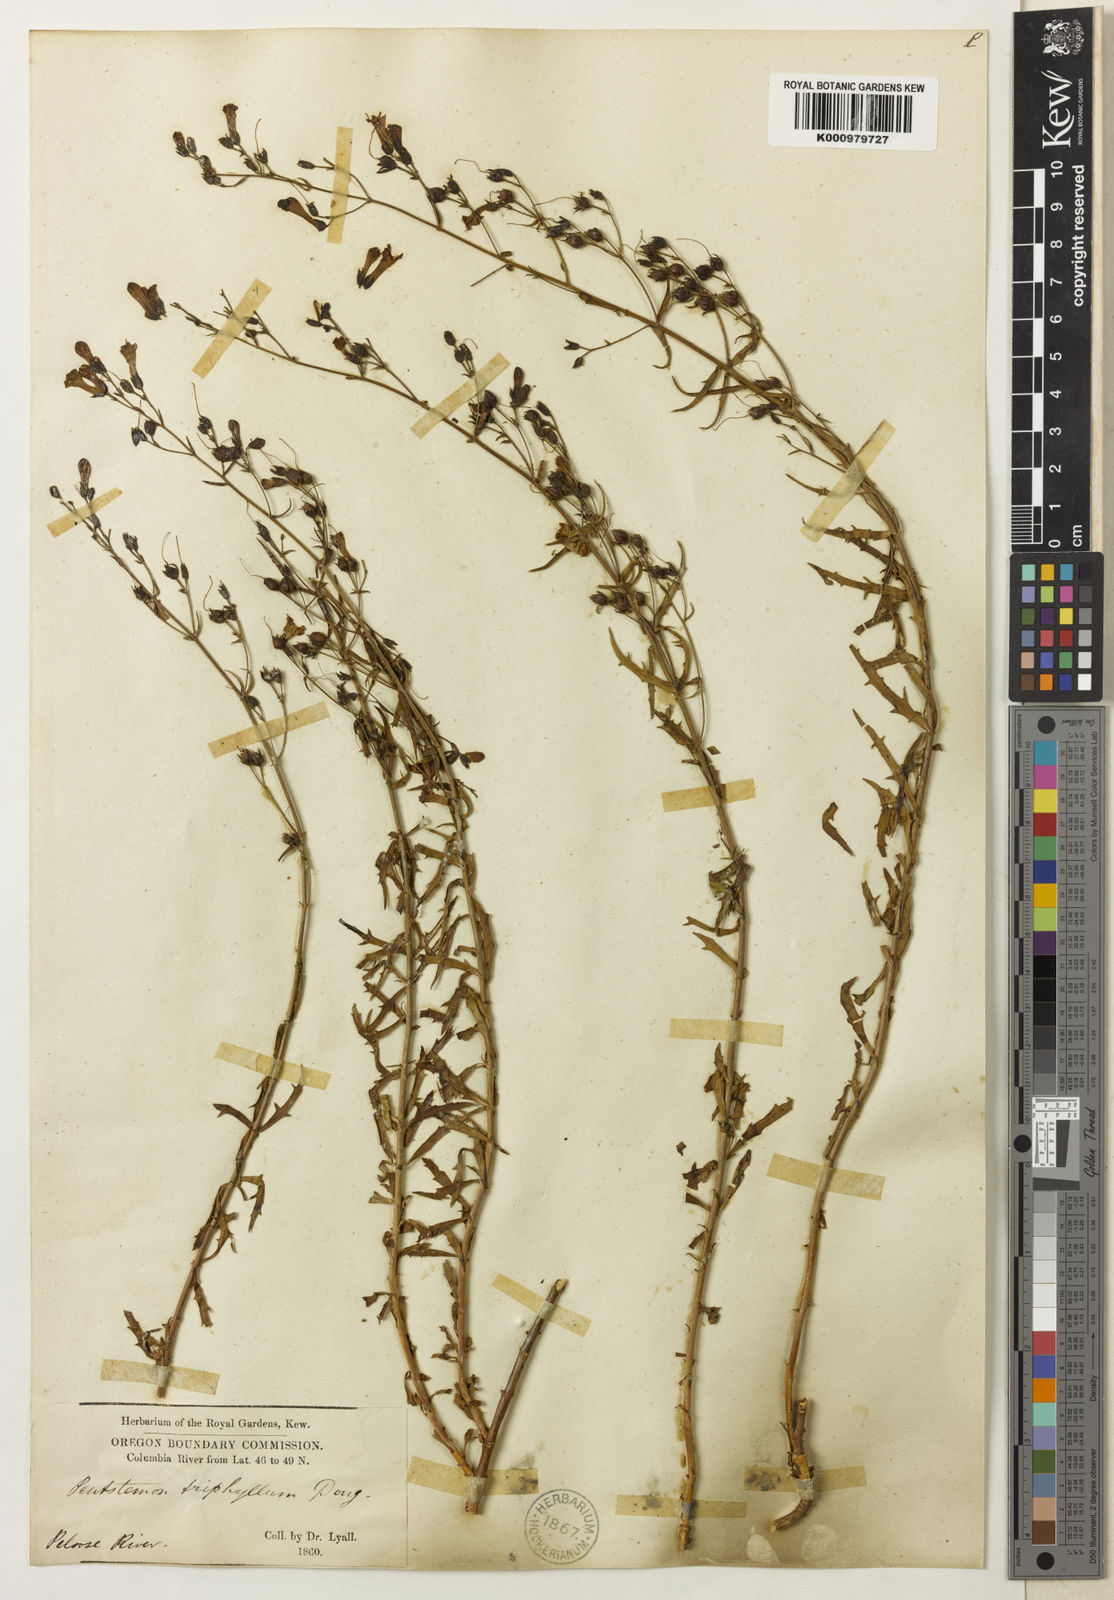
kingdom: Plantae
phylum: Tracheophyta
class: Magnoliopsida
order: Lamiales
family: Plantaginaceae
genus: Penstemon
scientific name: Penstemon triphyllus
